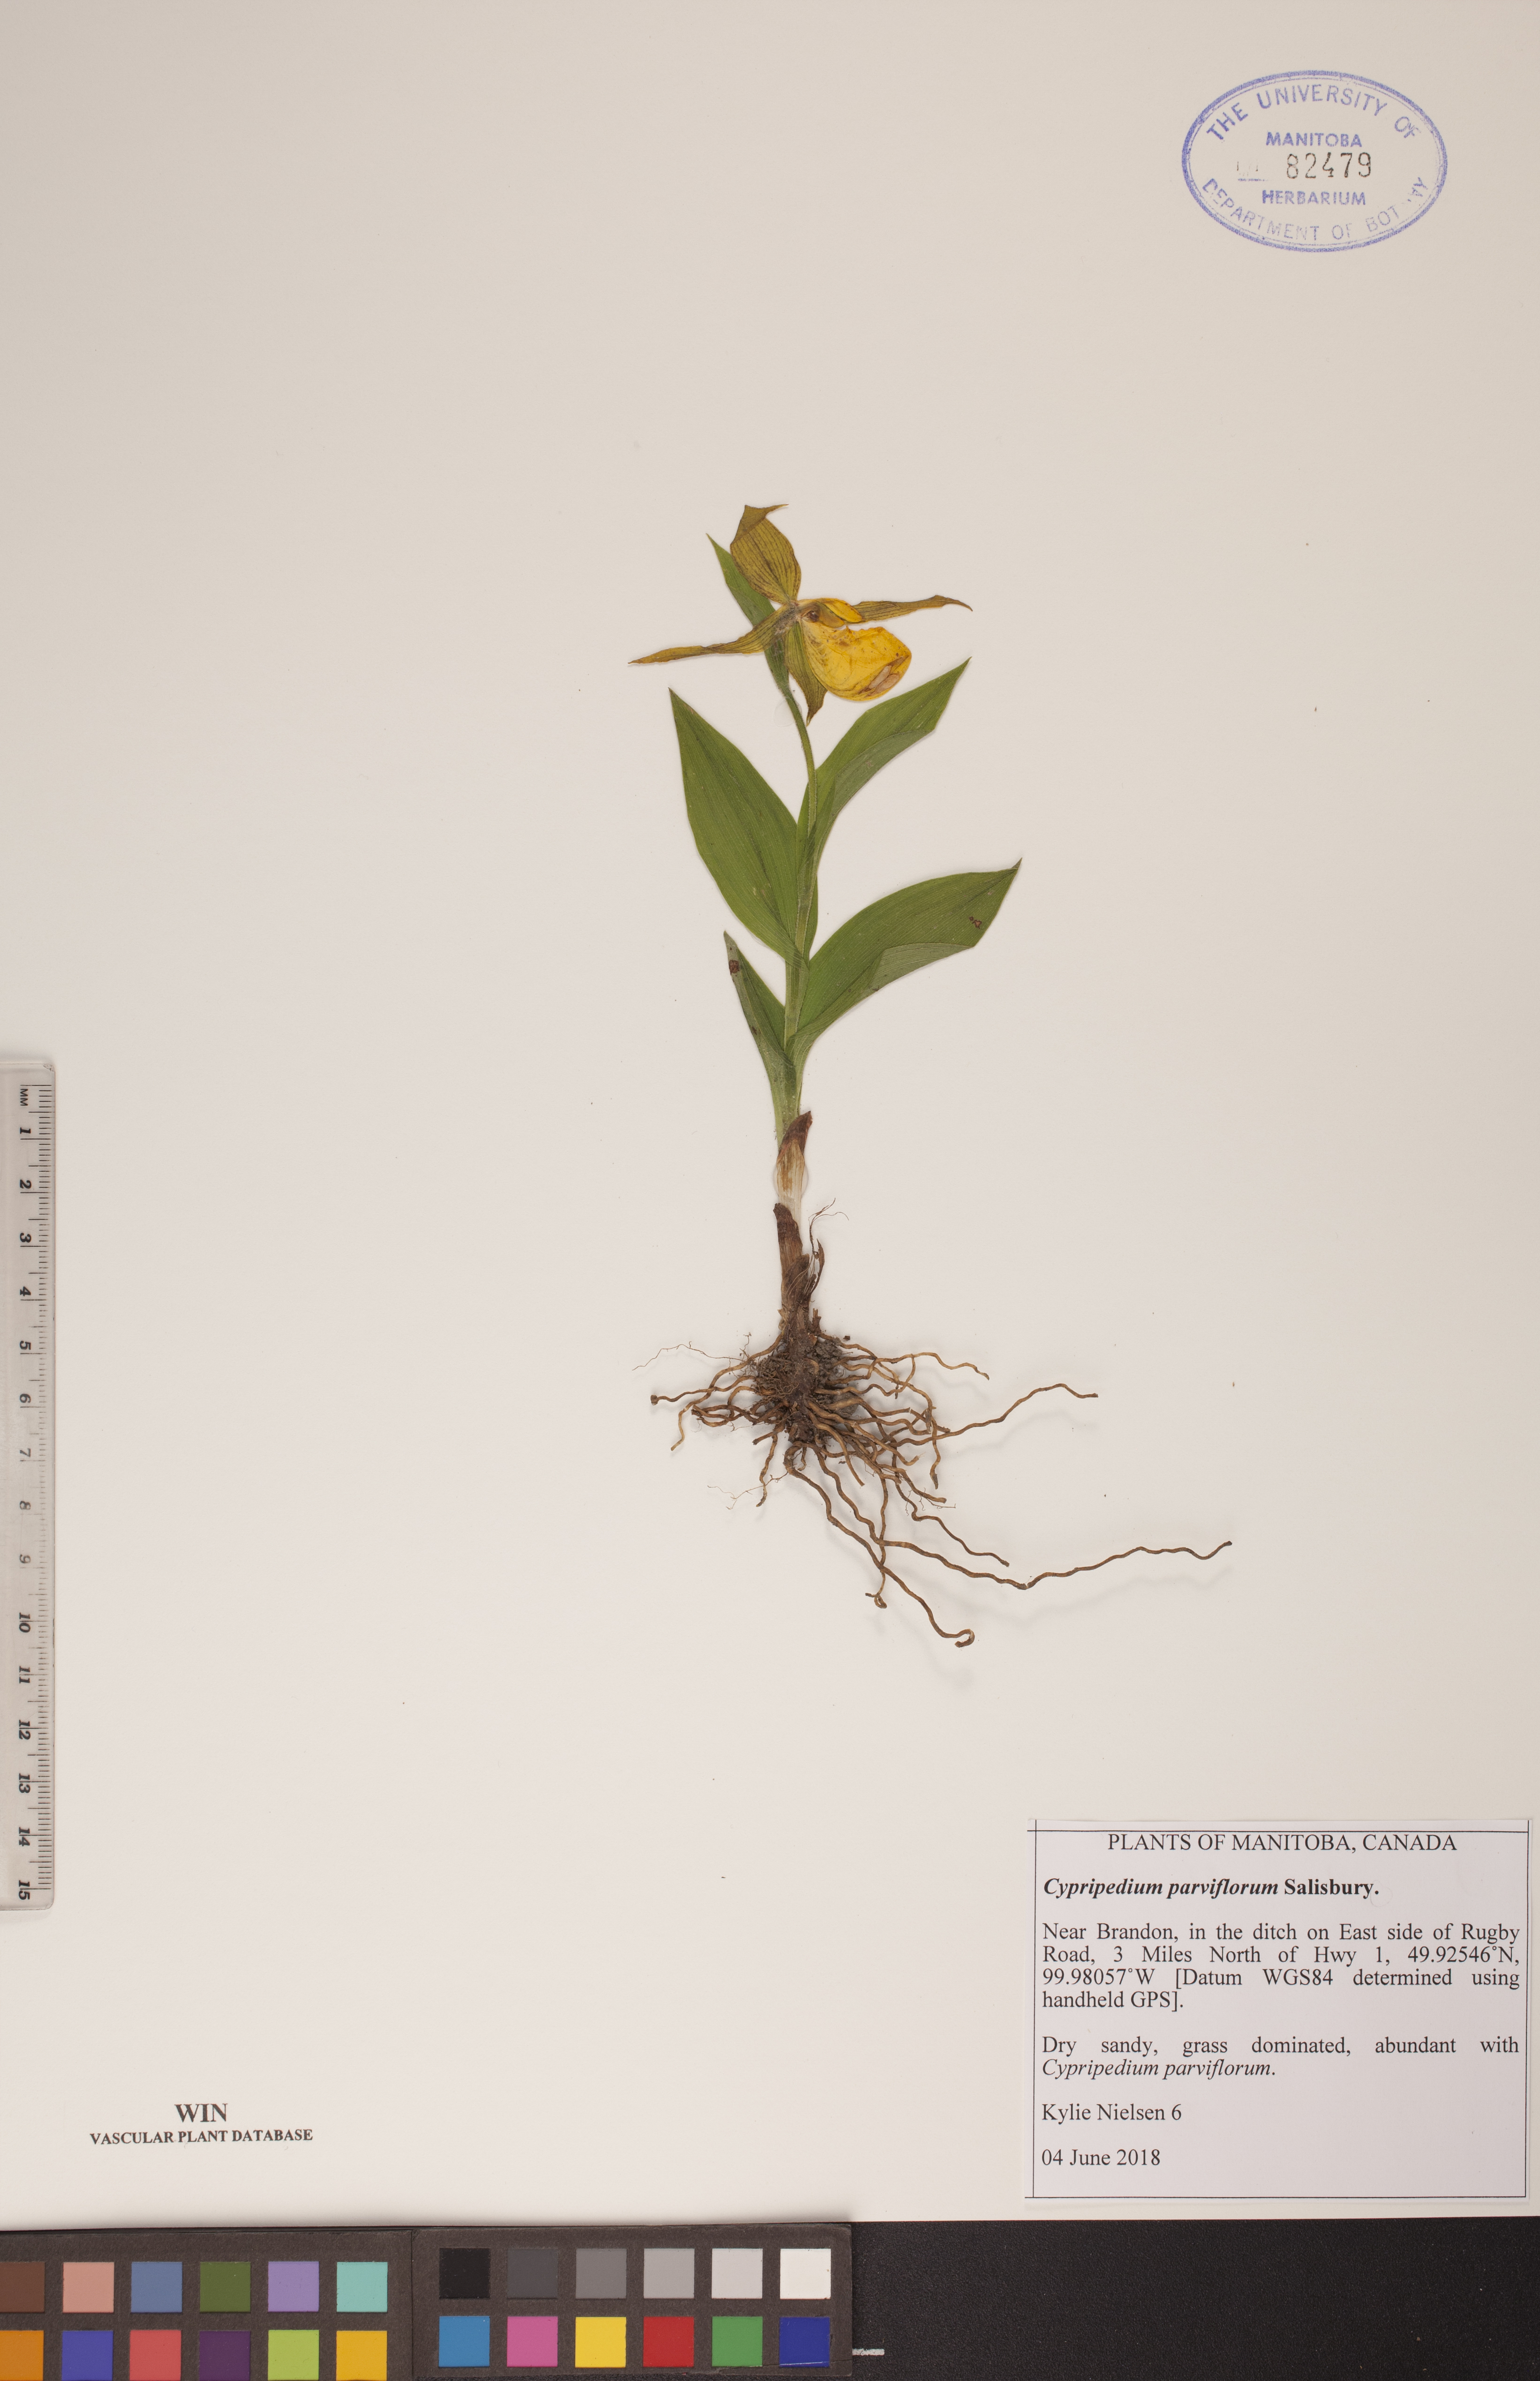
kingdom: Plantae
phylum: Tracheophyta
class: Liliopsida
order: Asparagales
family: Orchidaceae
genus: Cypripedium
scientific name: Cypripedium parviflorum
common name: American yellow lady's-slipper
